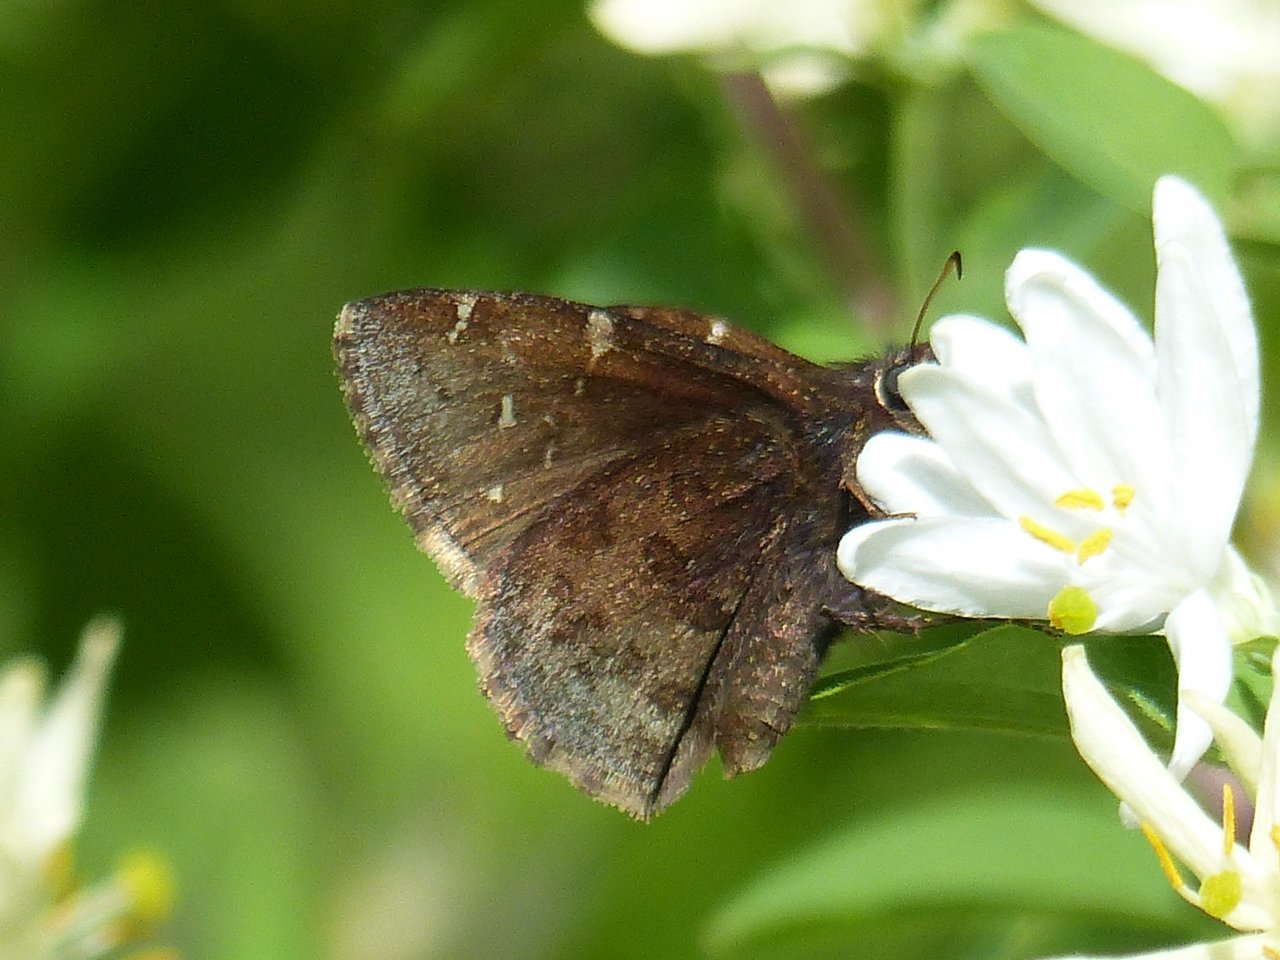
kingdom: Animalia
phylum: Arthropoda
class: Insecta
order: Lepidoptera
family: Hesperiidae
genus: Autochton
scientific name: Autochton
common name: Northern Cloudywing
